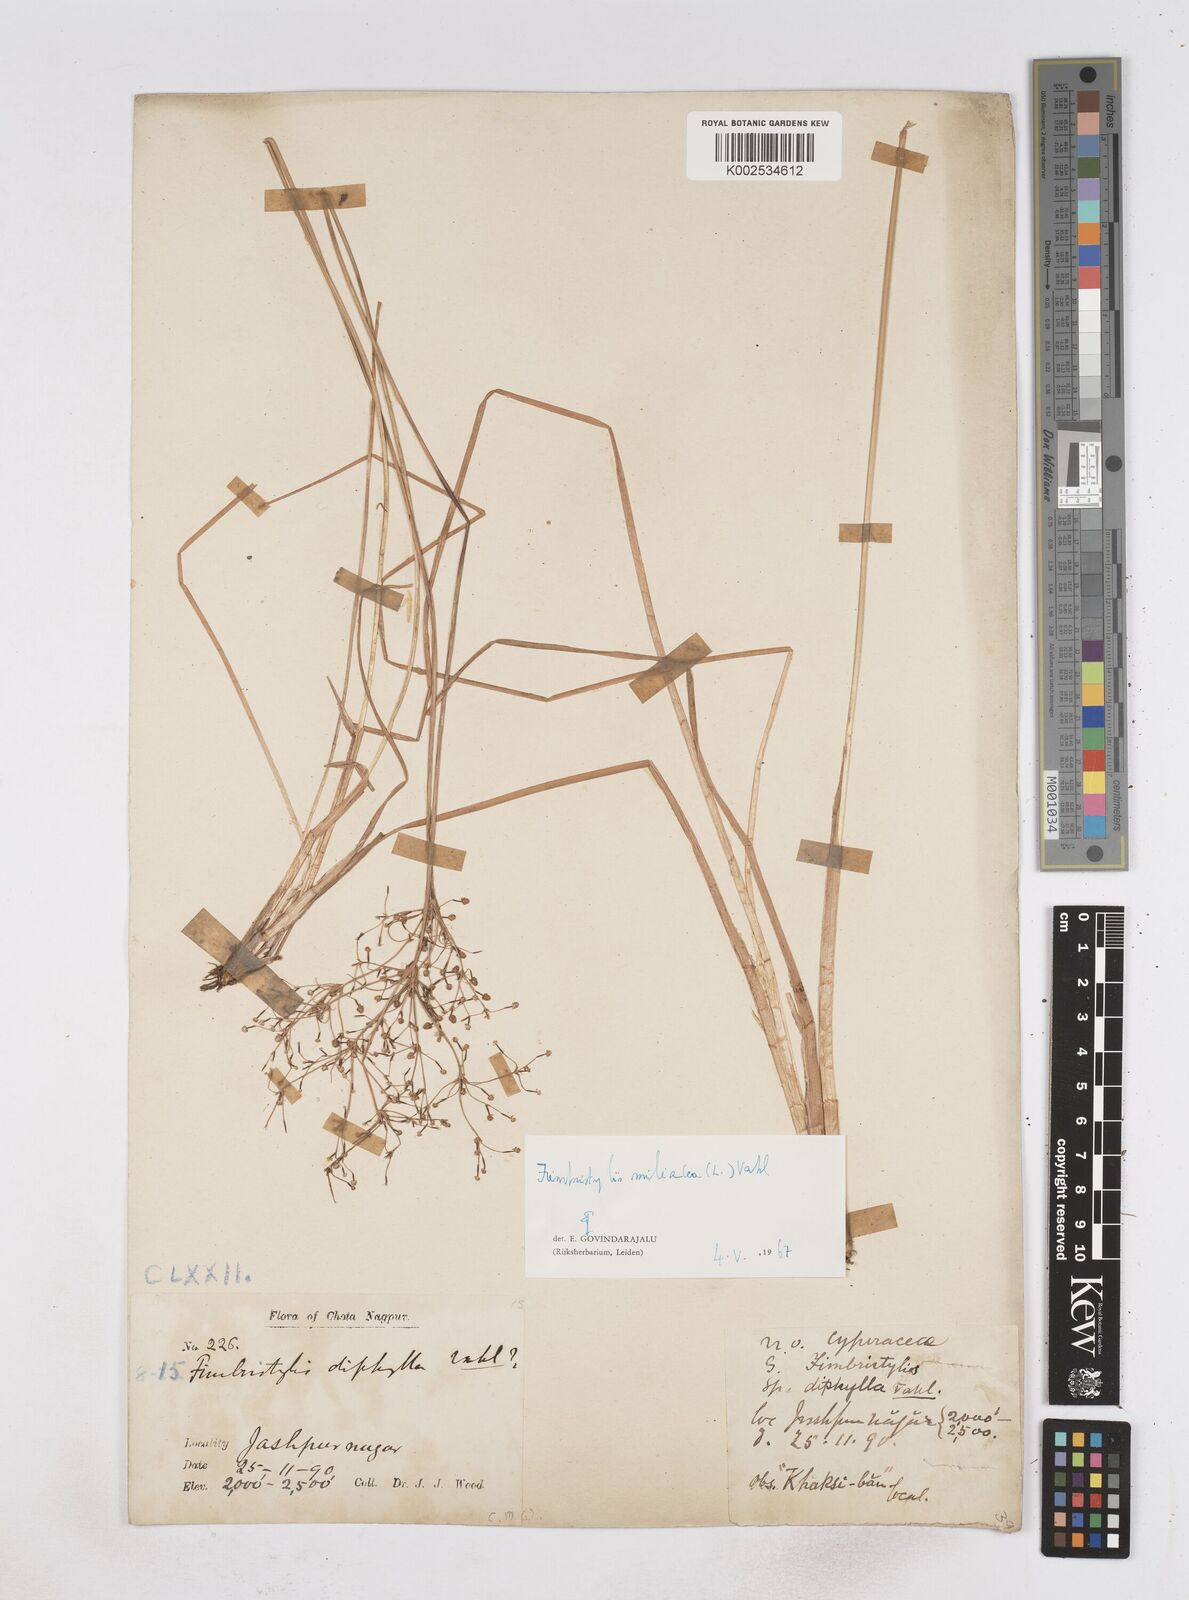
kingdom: Plantae
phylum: Tracheophyta
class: Liliopsida
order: Poales
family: Cyperaceae
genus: Fimbristylis
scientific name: Fimbristylis littoralis
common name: Fimbry
